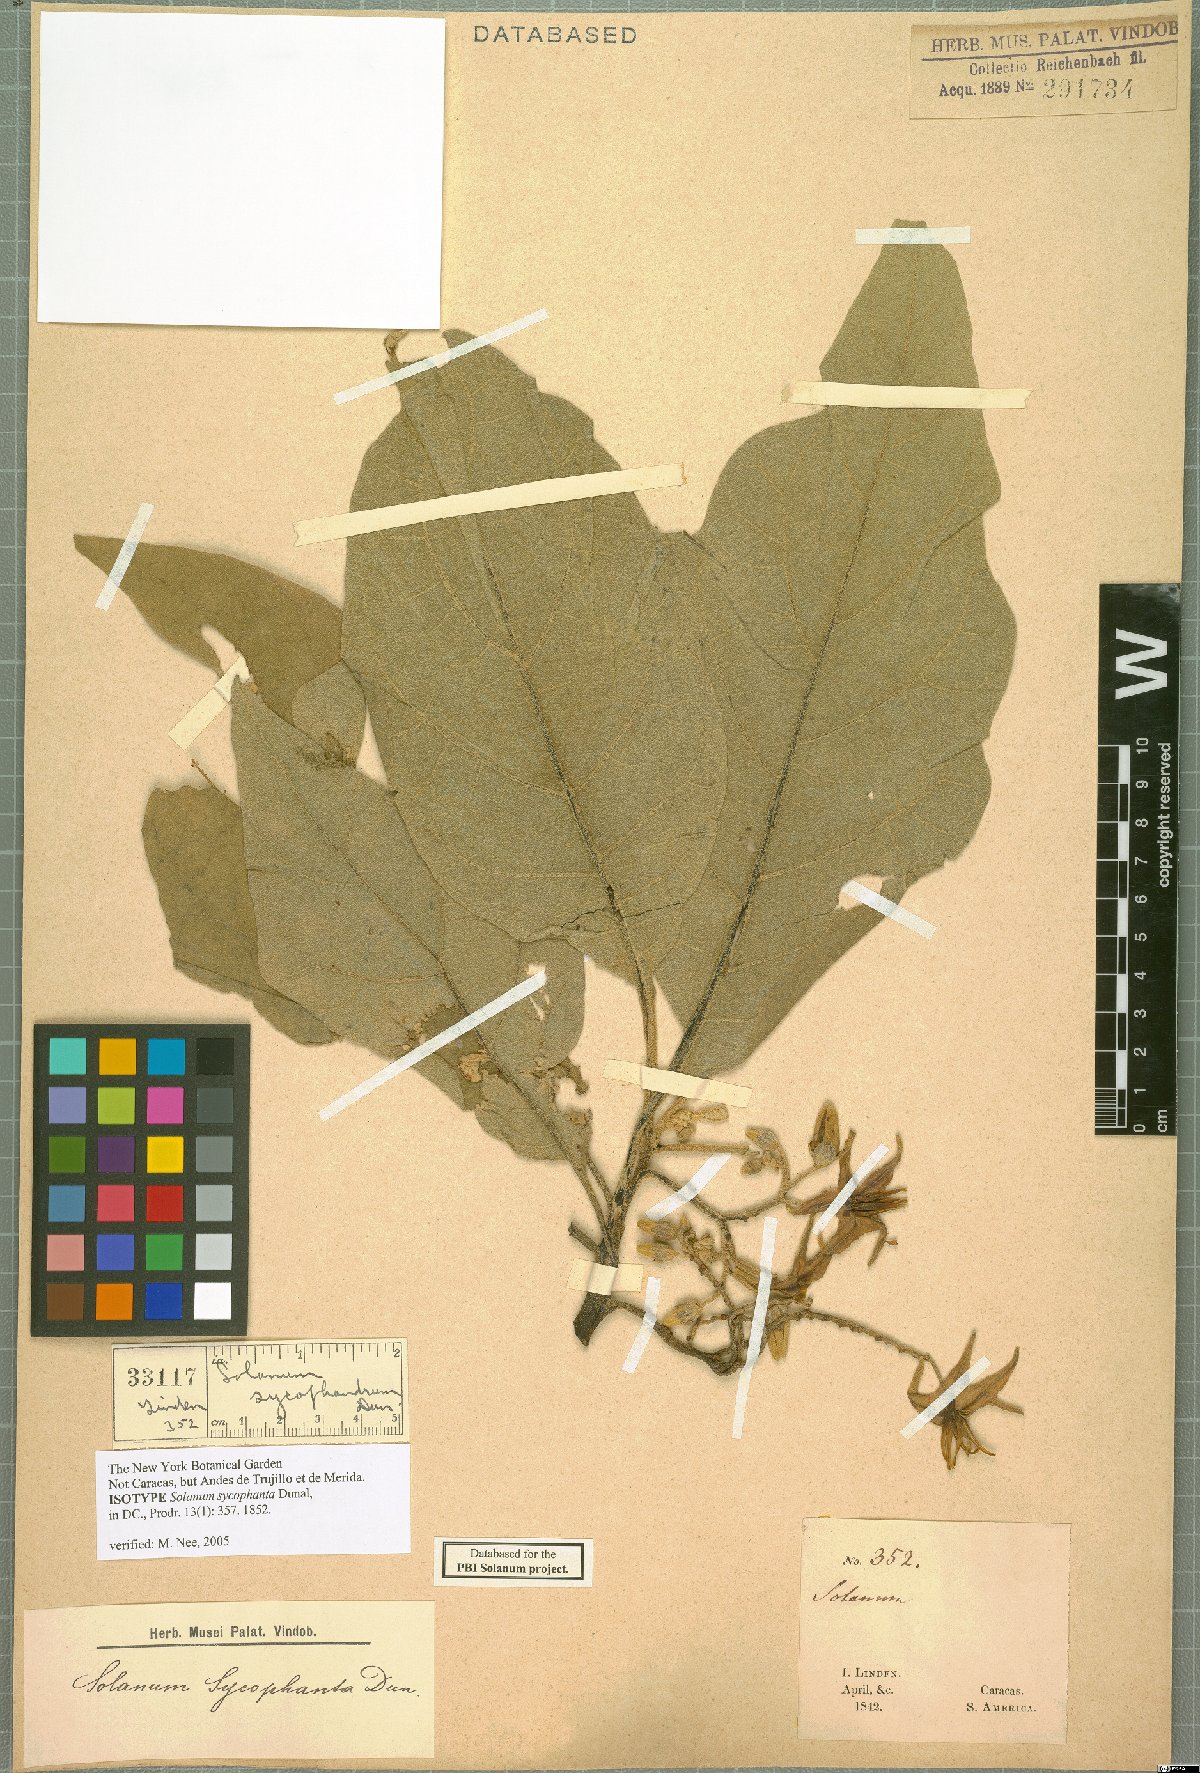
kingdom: Plantae
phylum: Tracheophyta
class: Magnoliopsida
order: Solanales
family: Solanaceae
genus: Solanum
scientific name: Solanum sycophanta
